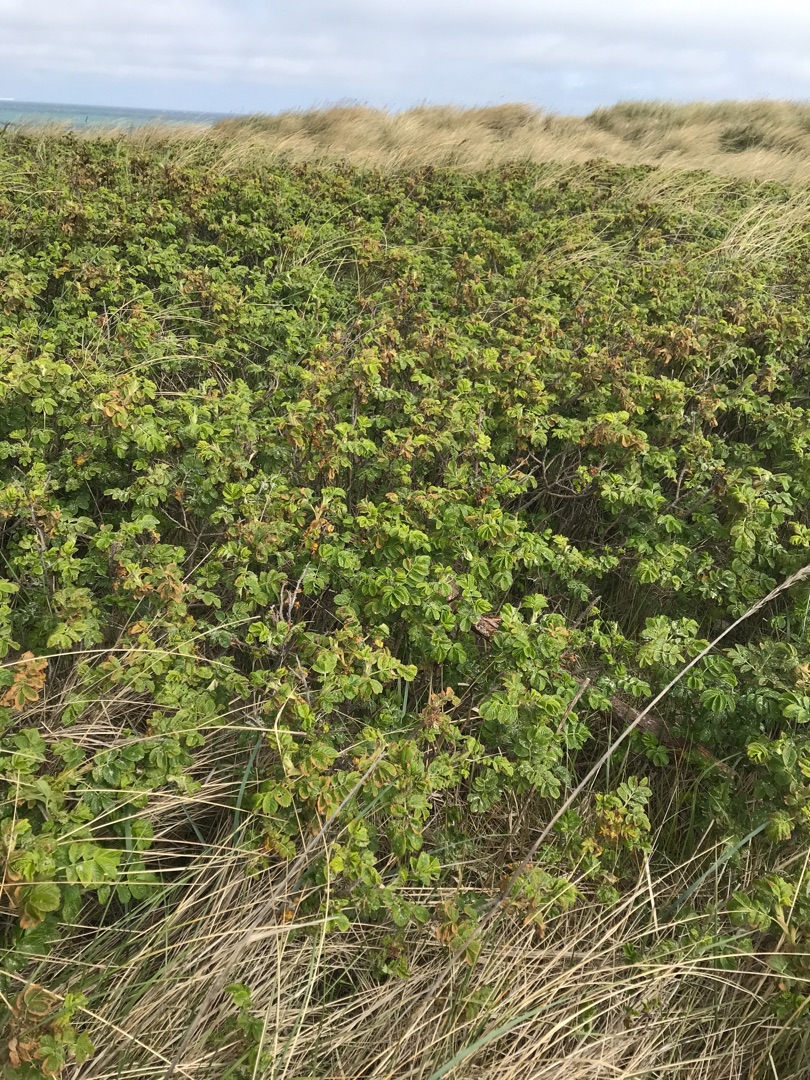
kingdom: Plantae
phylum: Tracheophyta
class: Magnoliopsida
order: Rosales
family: Rosaceae
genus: Rosa
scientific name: Rosa rugosa
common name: Rynket rose
